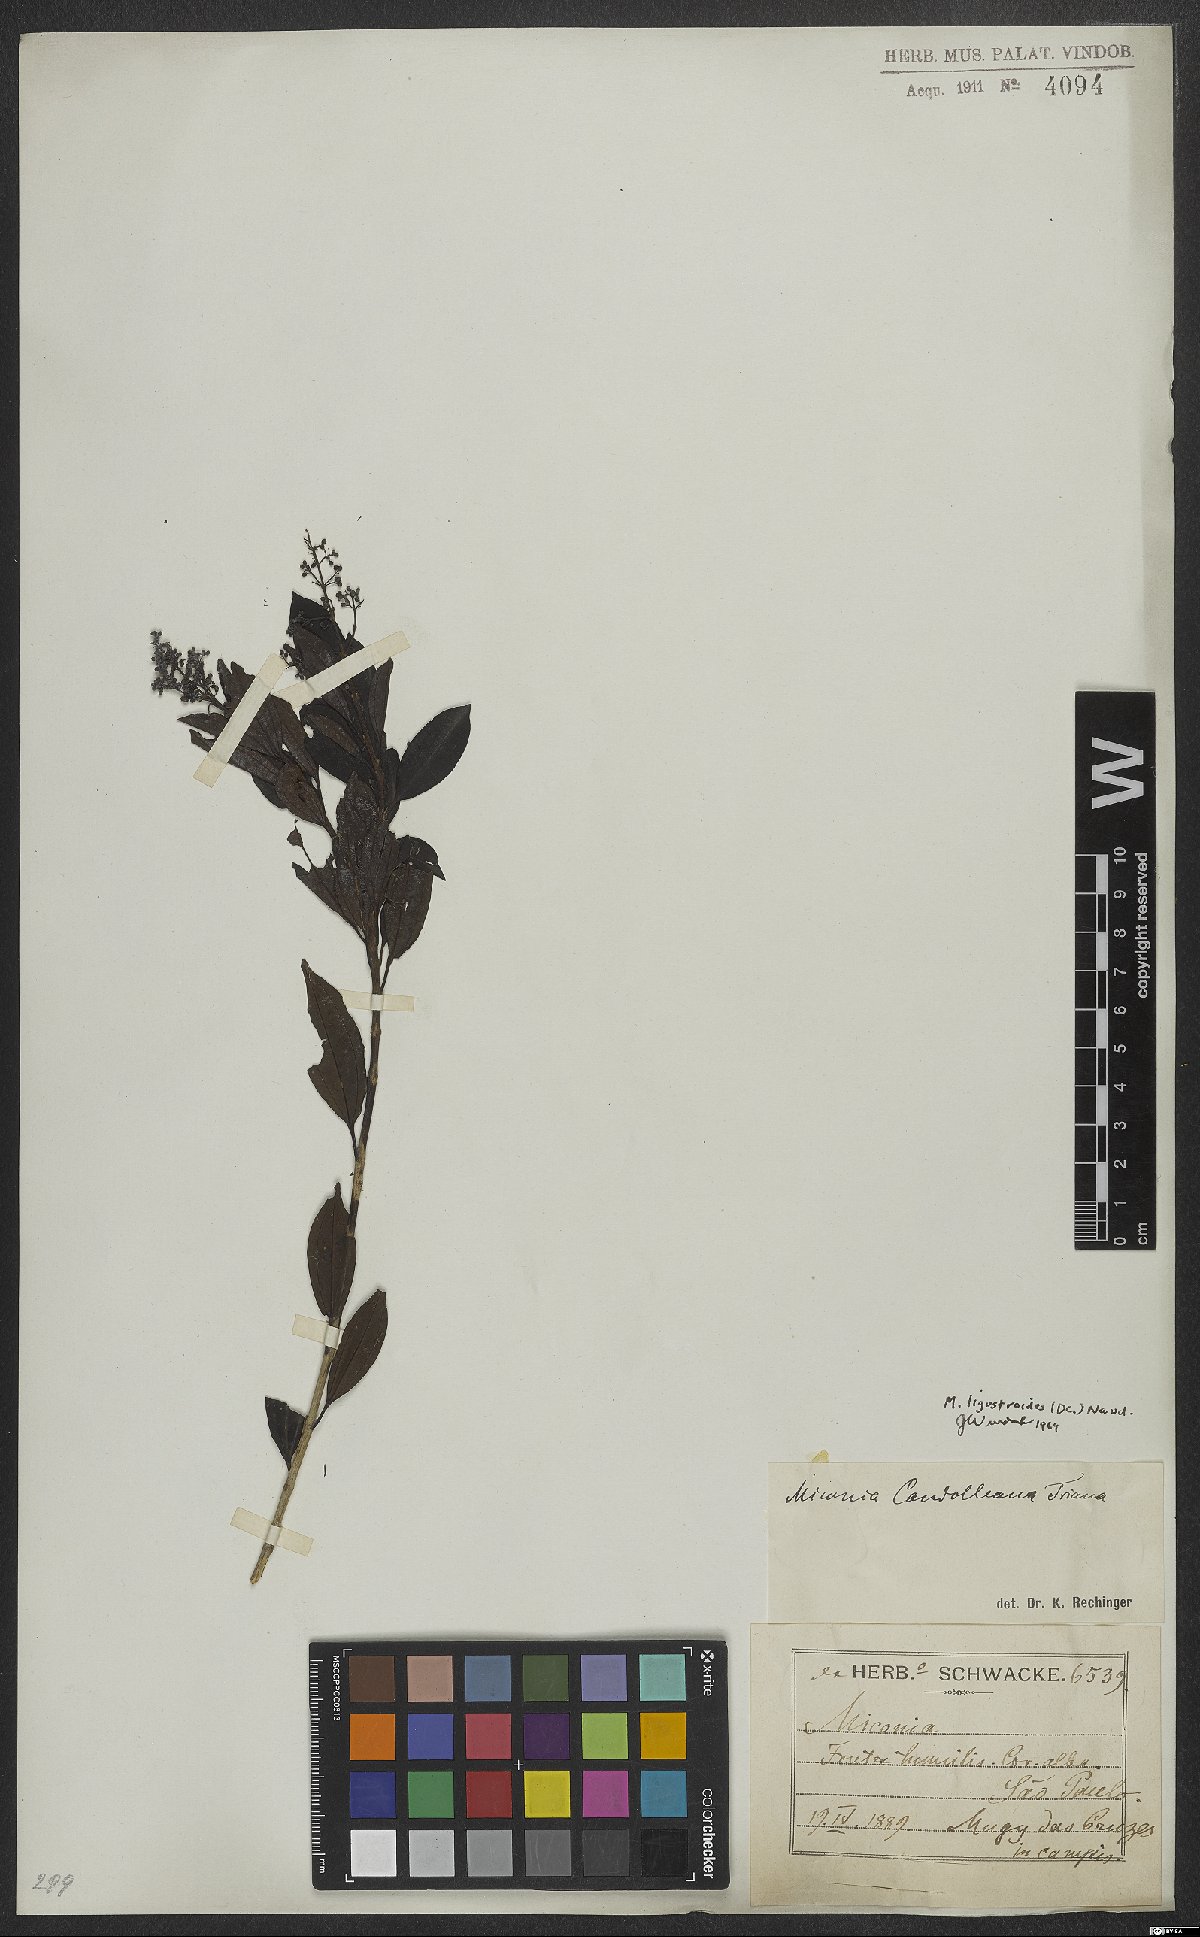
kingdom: Plantae
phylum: Tracheophyta
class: Magnoliopsida
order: Myrtales
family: Melastomataceae
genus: Miconia
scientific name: Miconia ligustroides
